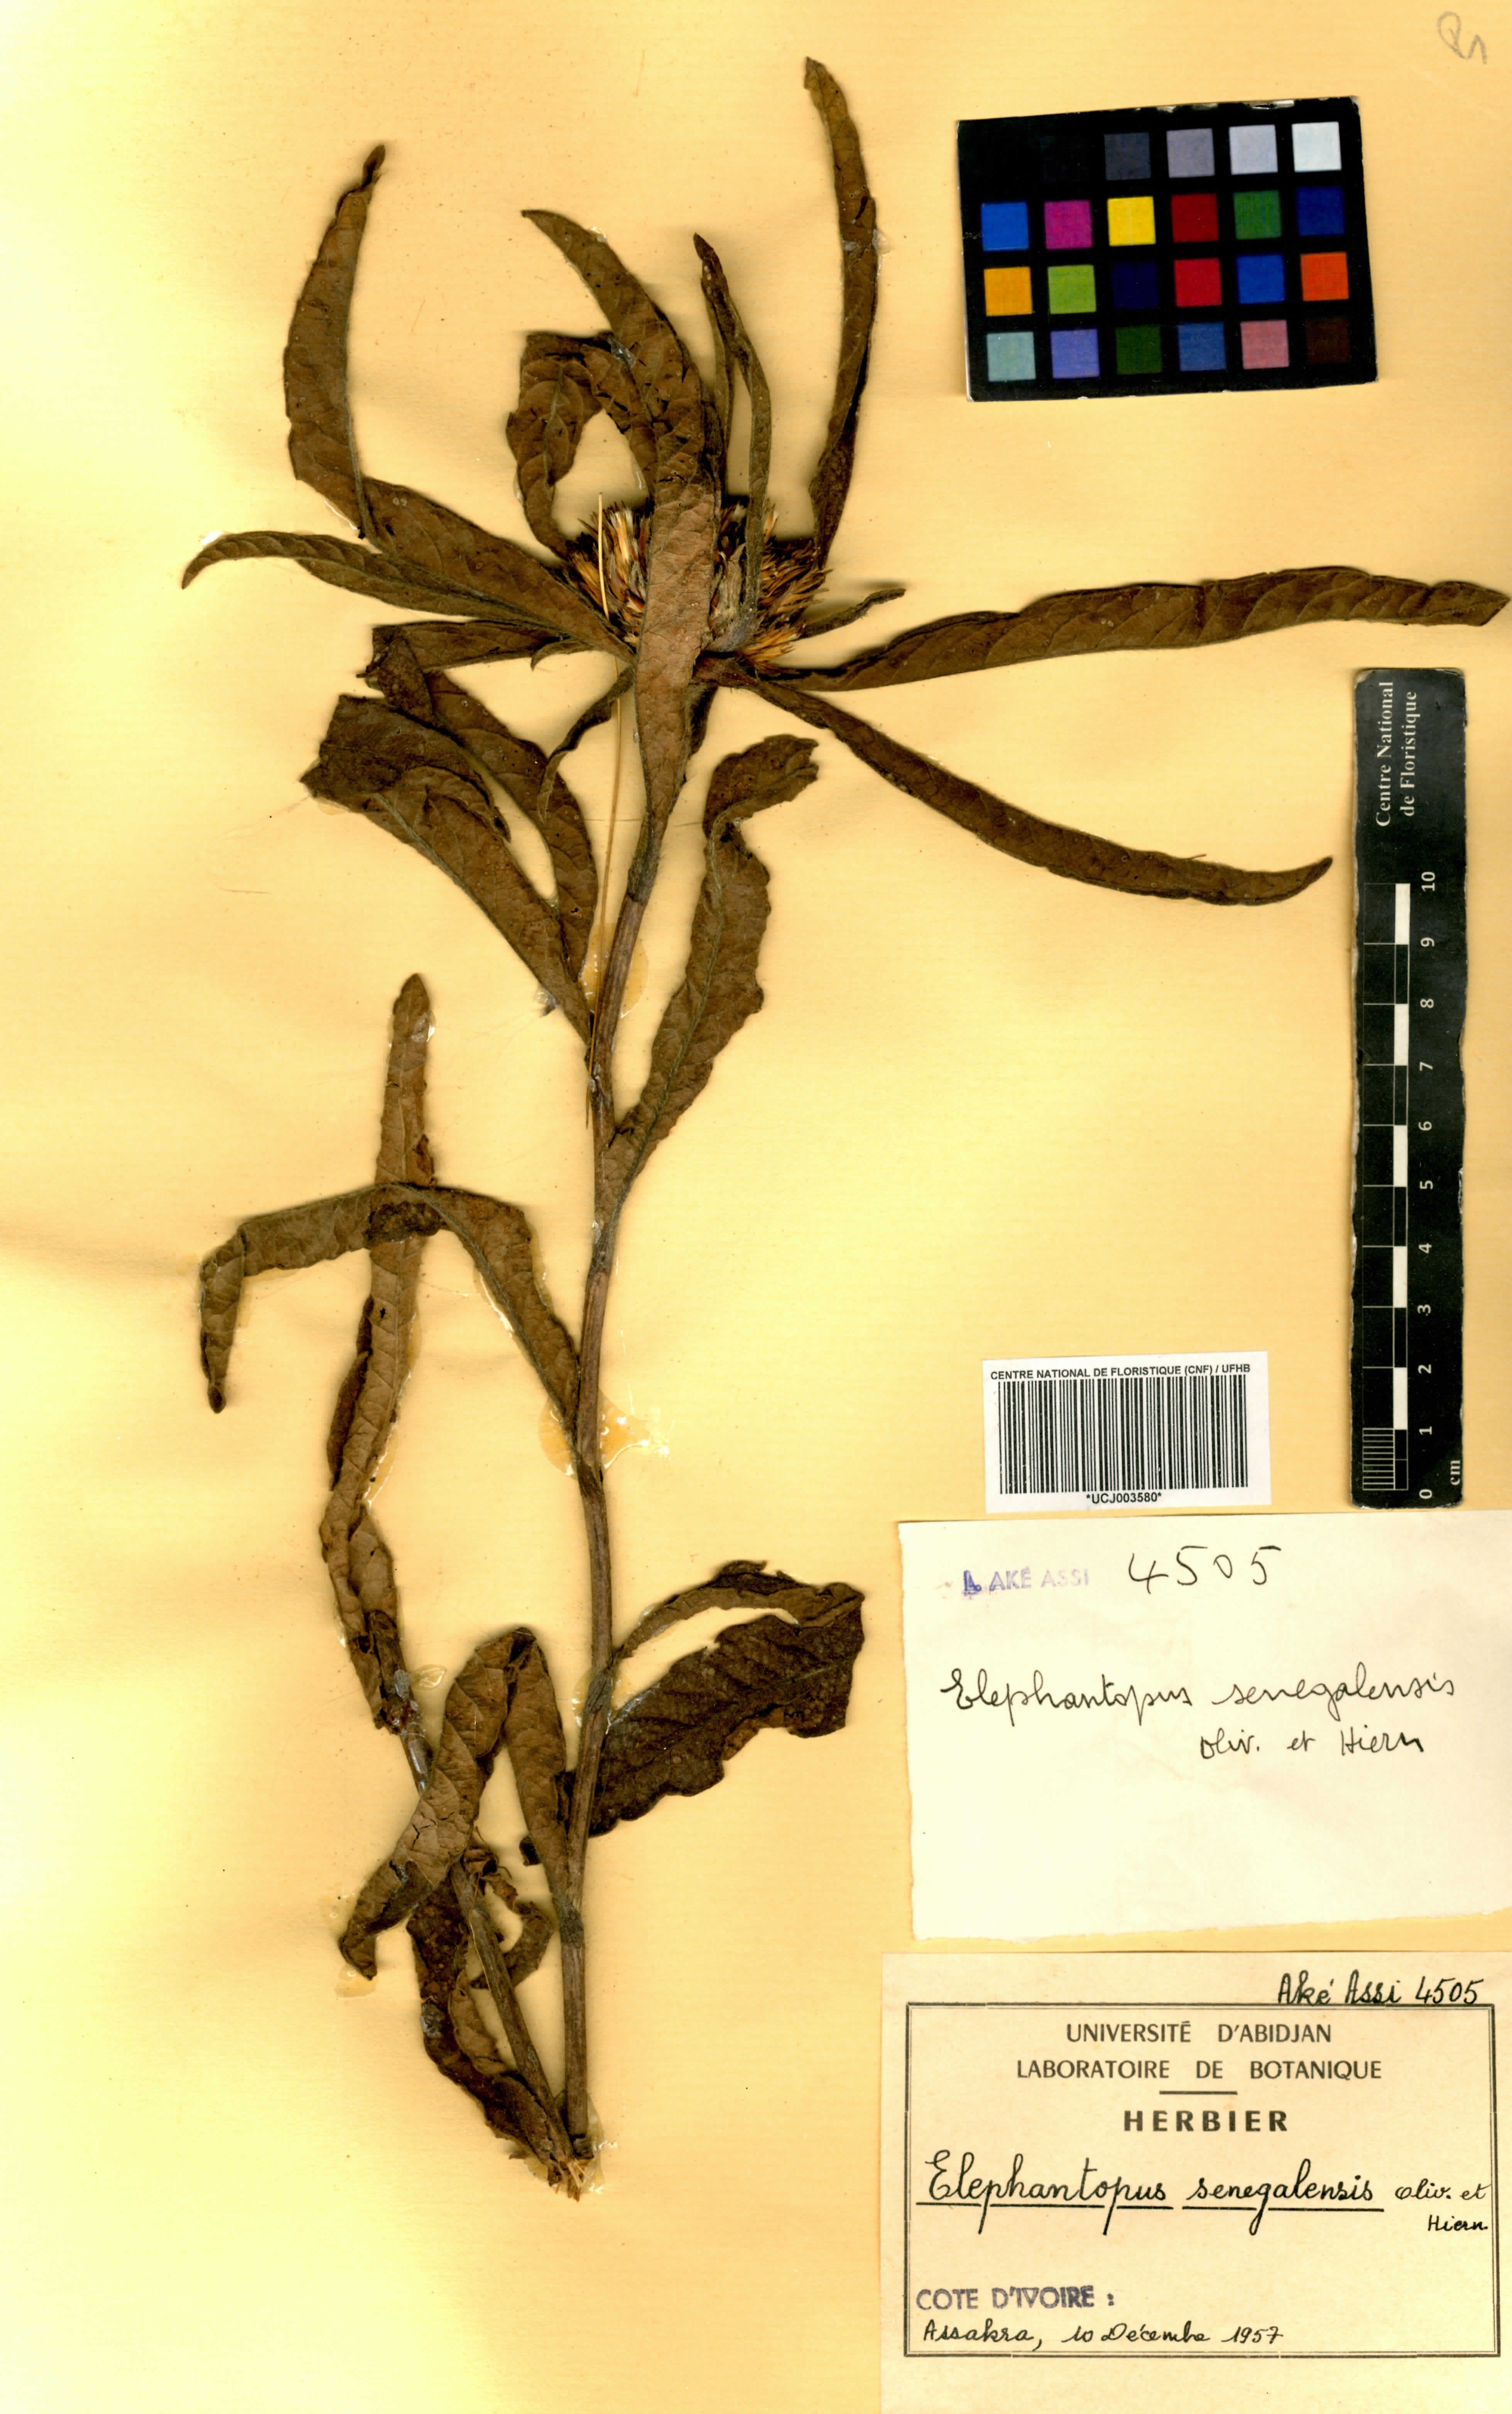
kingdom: Plantae
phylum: Tracheophyta
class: Magnoliopsida
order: Asterales
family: Asteraceae
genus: Elephantopus
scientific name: Elephantopus senegalensis
